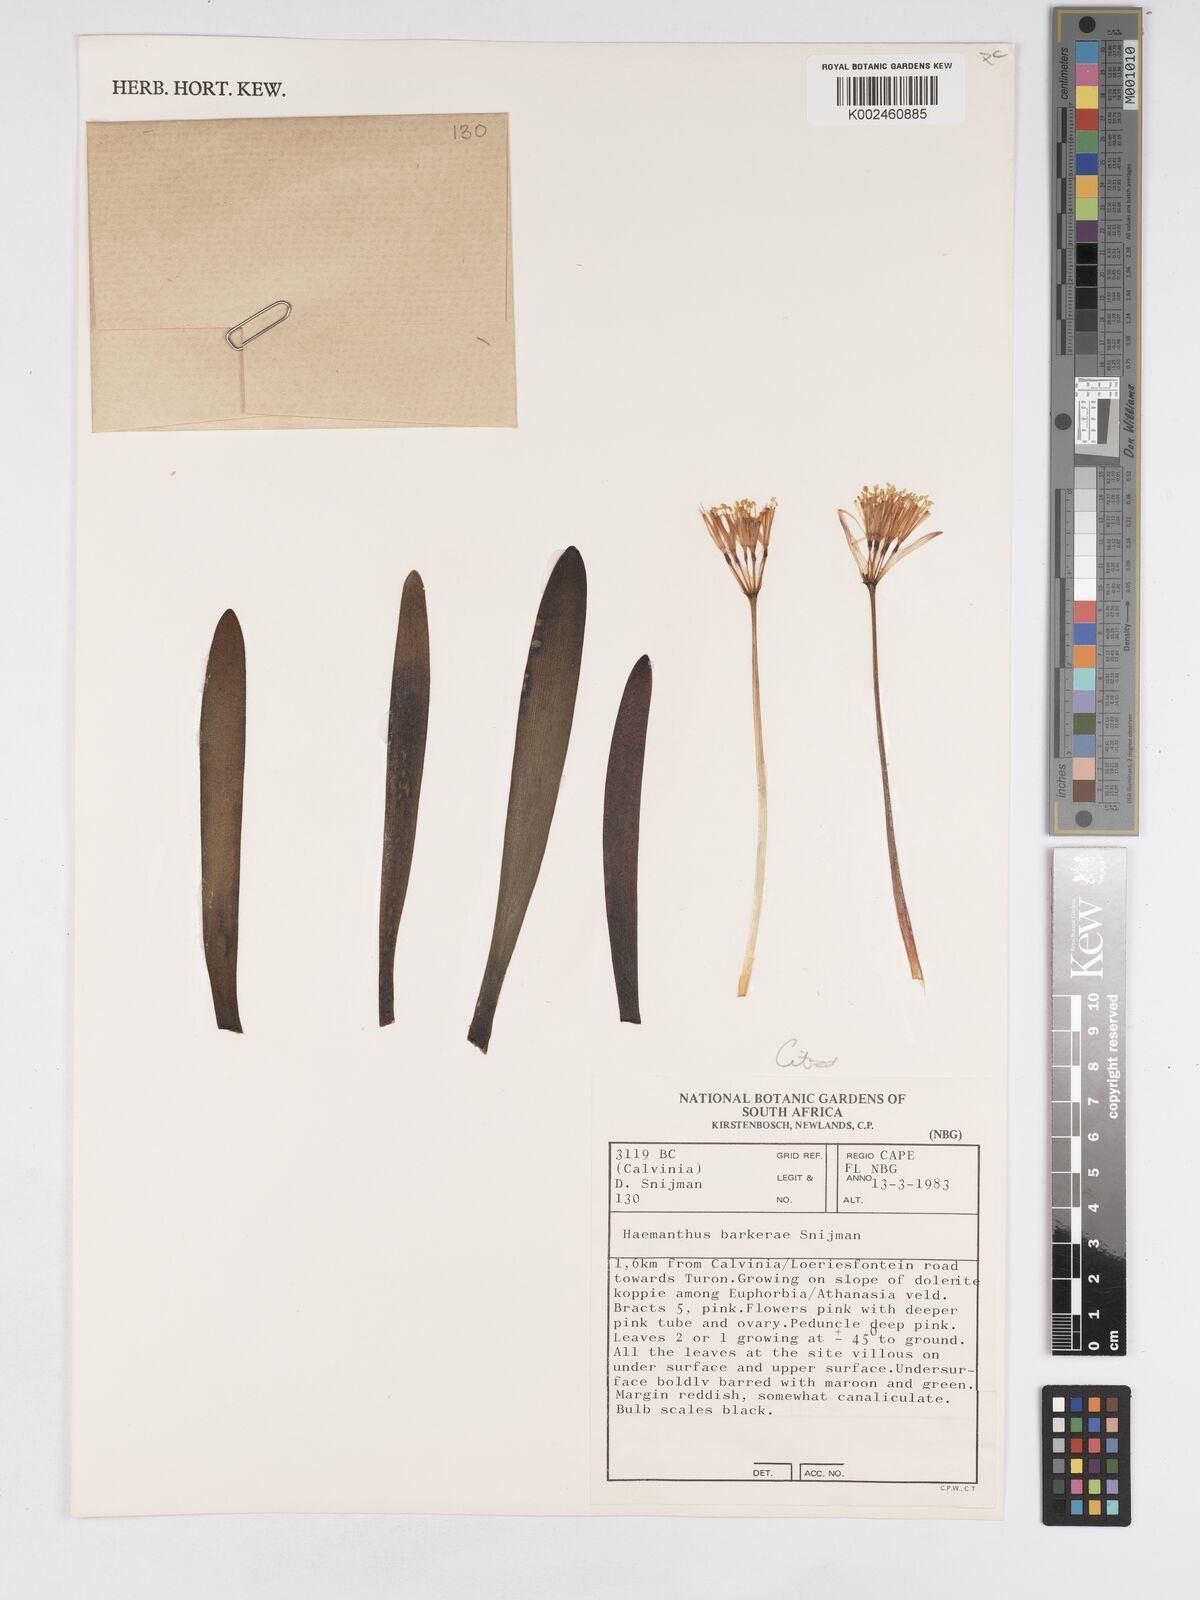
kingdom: Plantae
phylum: Tracheophyta
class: Liliopsida
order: Asparagales
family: Amaryllidaceae
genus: Haemanthus
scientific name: Haemanthus barkerae
